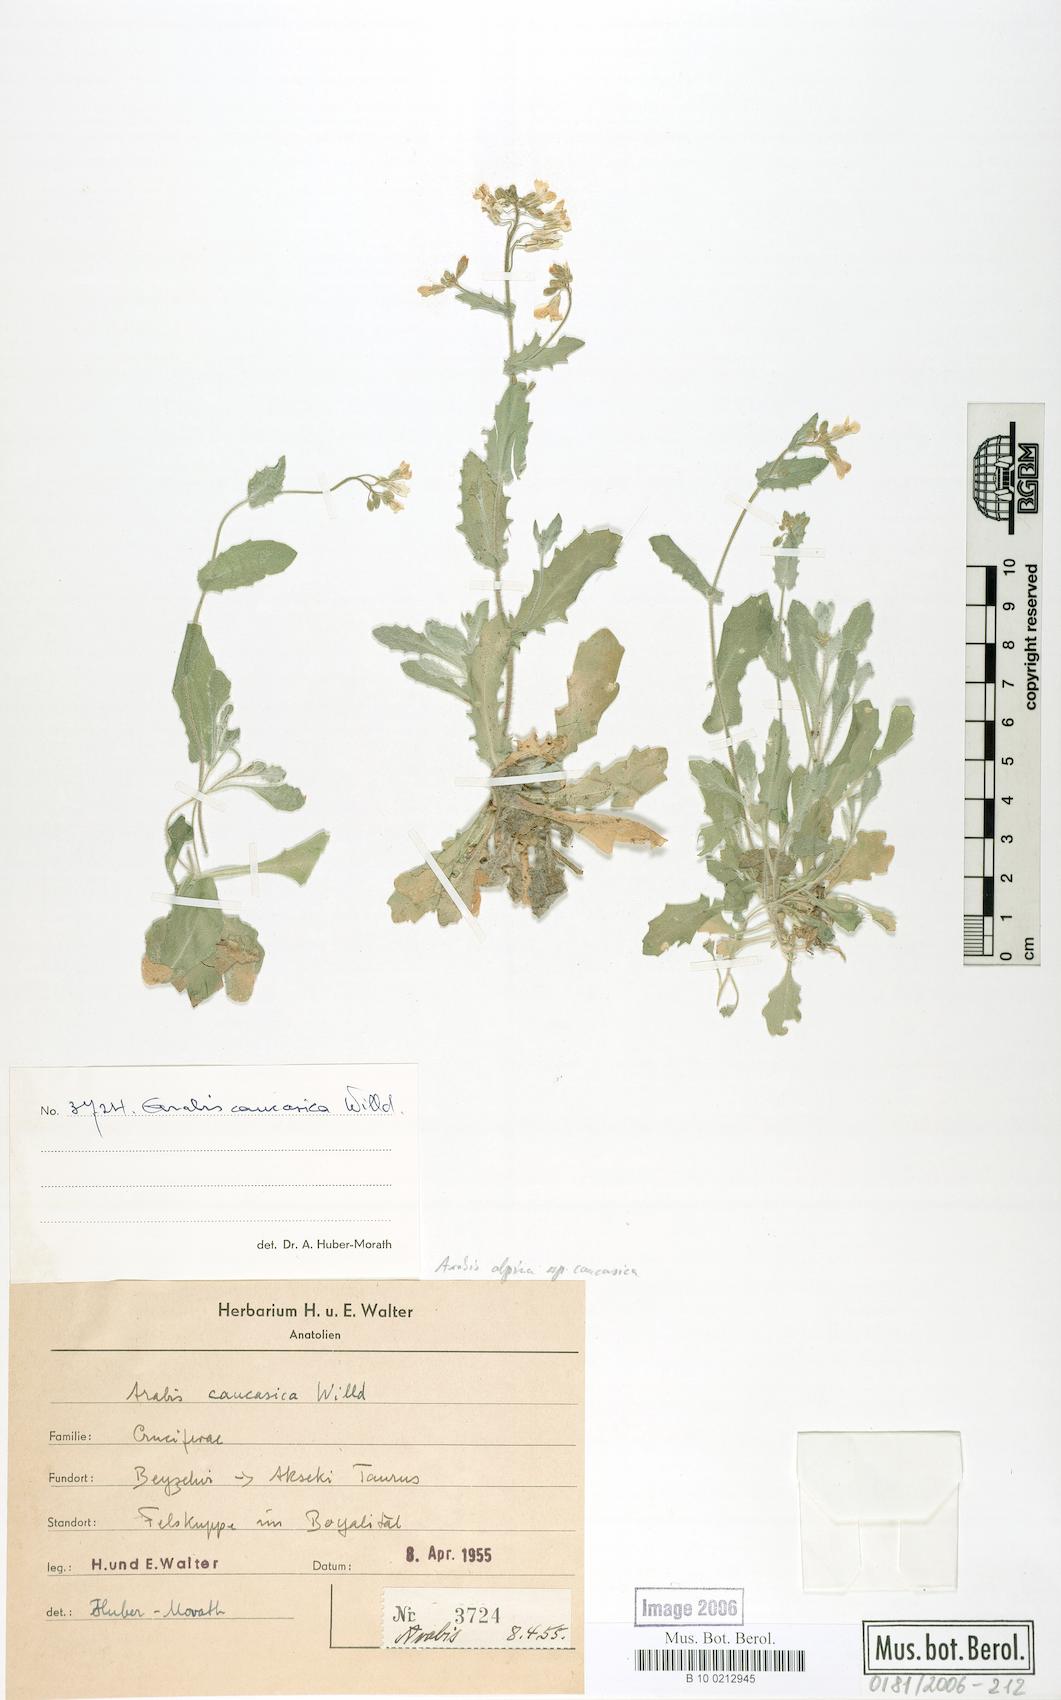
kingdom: Plantae
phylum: Tracheophyta
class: Magnoliopsida
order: Brassicales
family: Brassicaceae
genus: Arabis
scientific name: Arabis caucasica
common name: Gray rockcress
